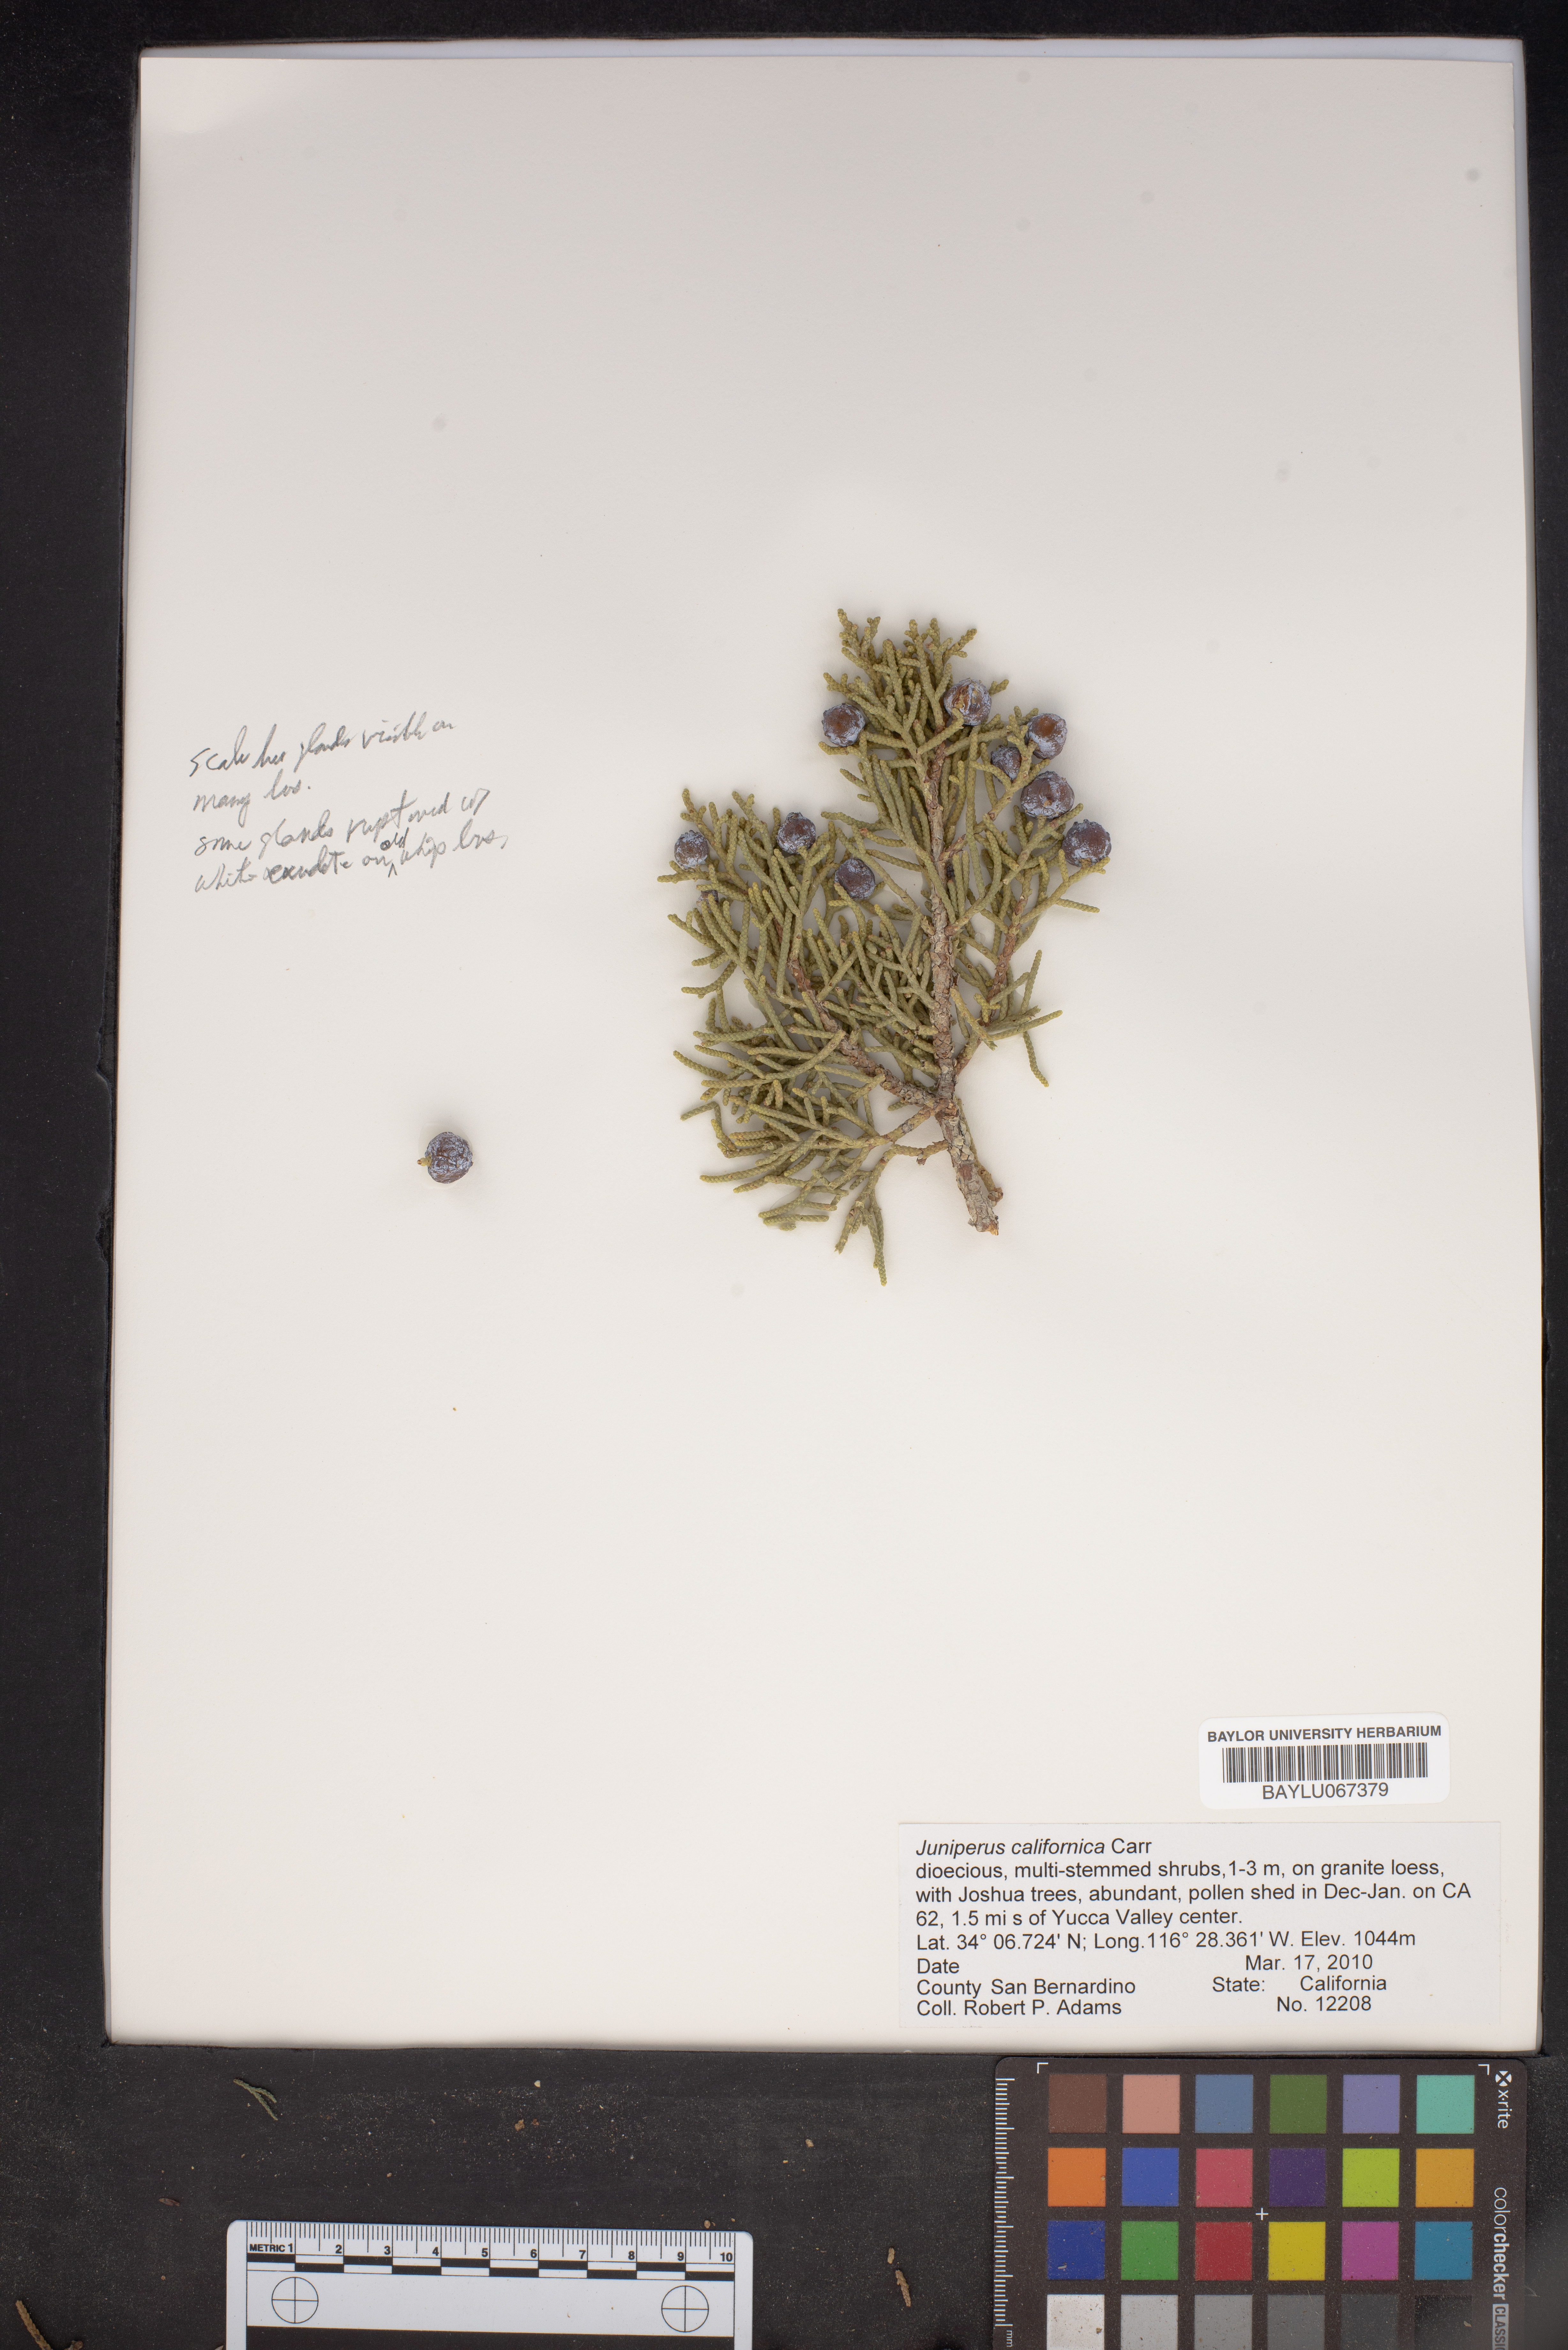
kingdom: Plantae
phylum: Tracheophyta
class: Pinopsida
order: Pinales
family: Cupressaceae
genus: Juniperus
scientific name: Juniperus californica
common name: California juniper
